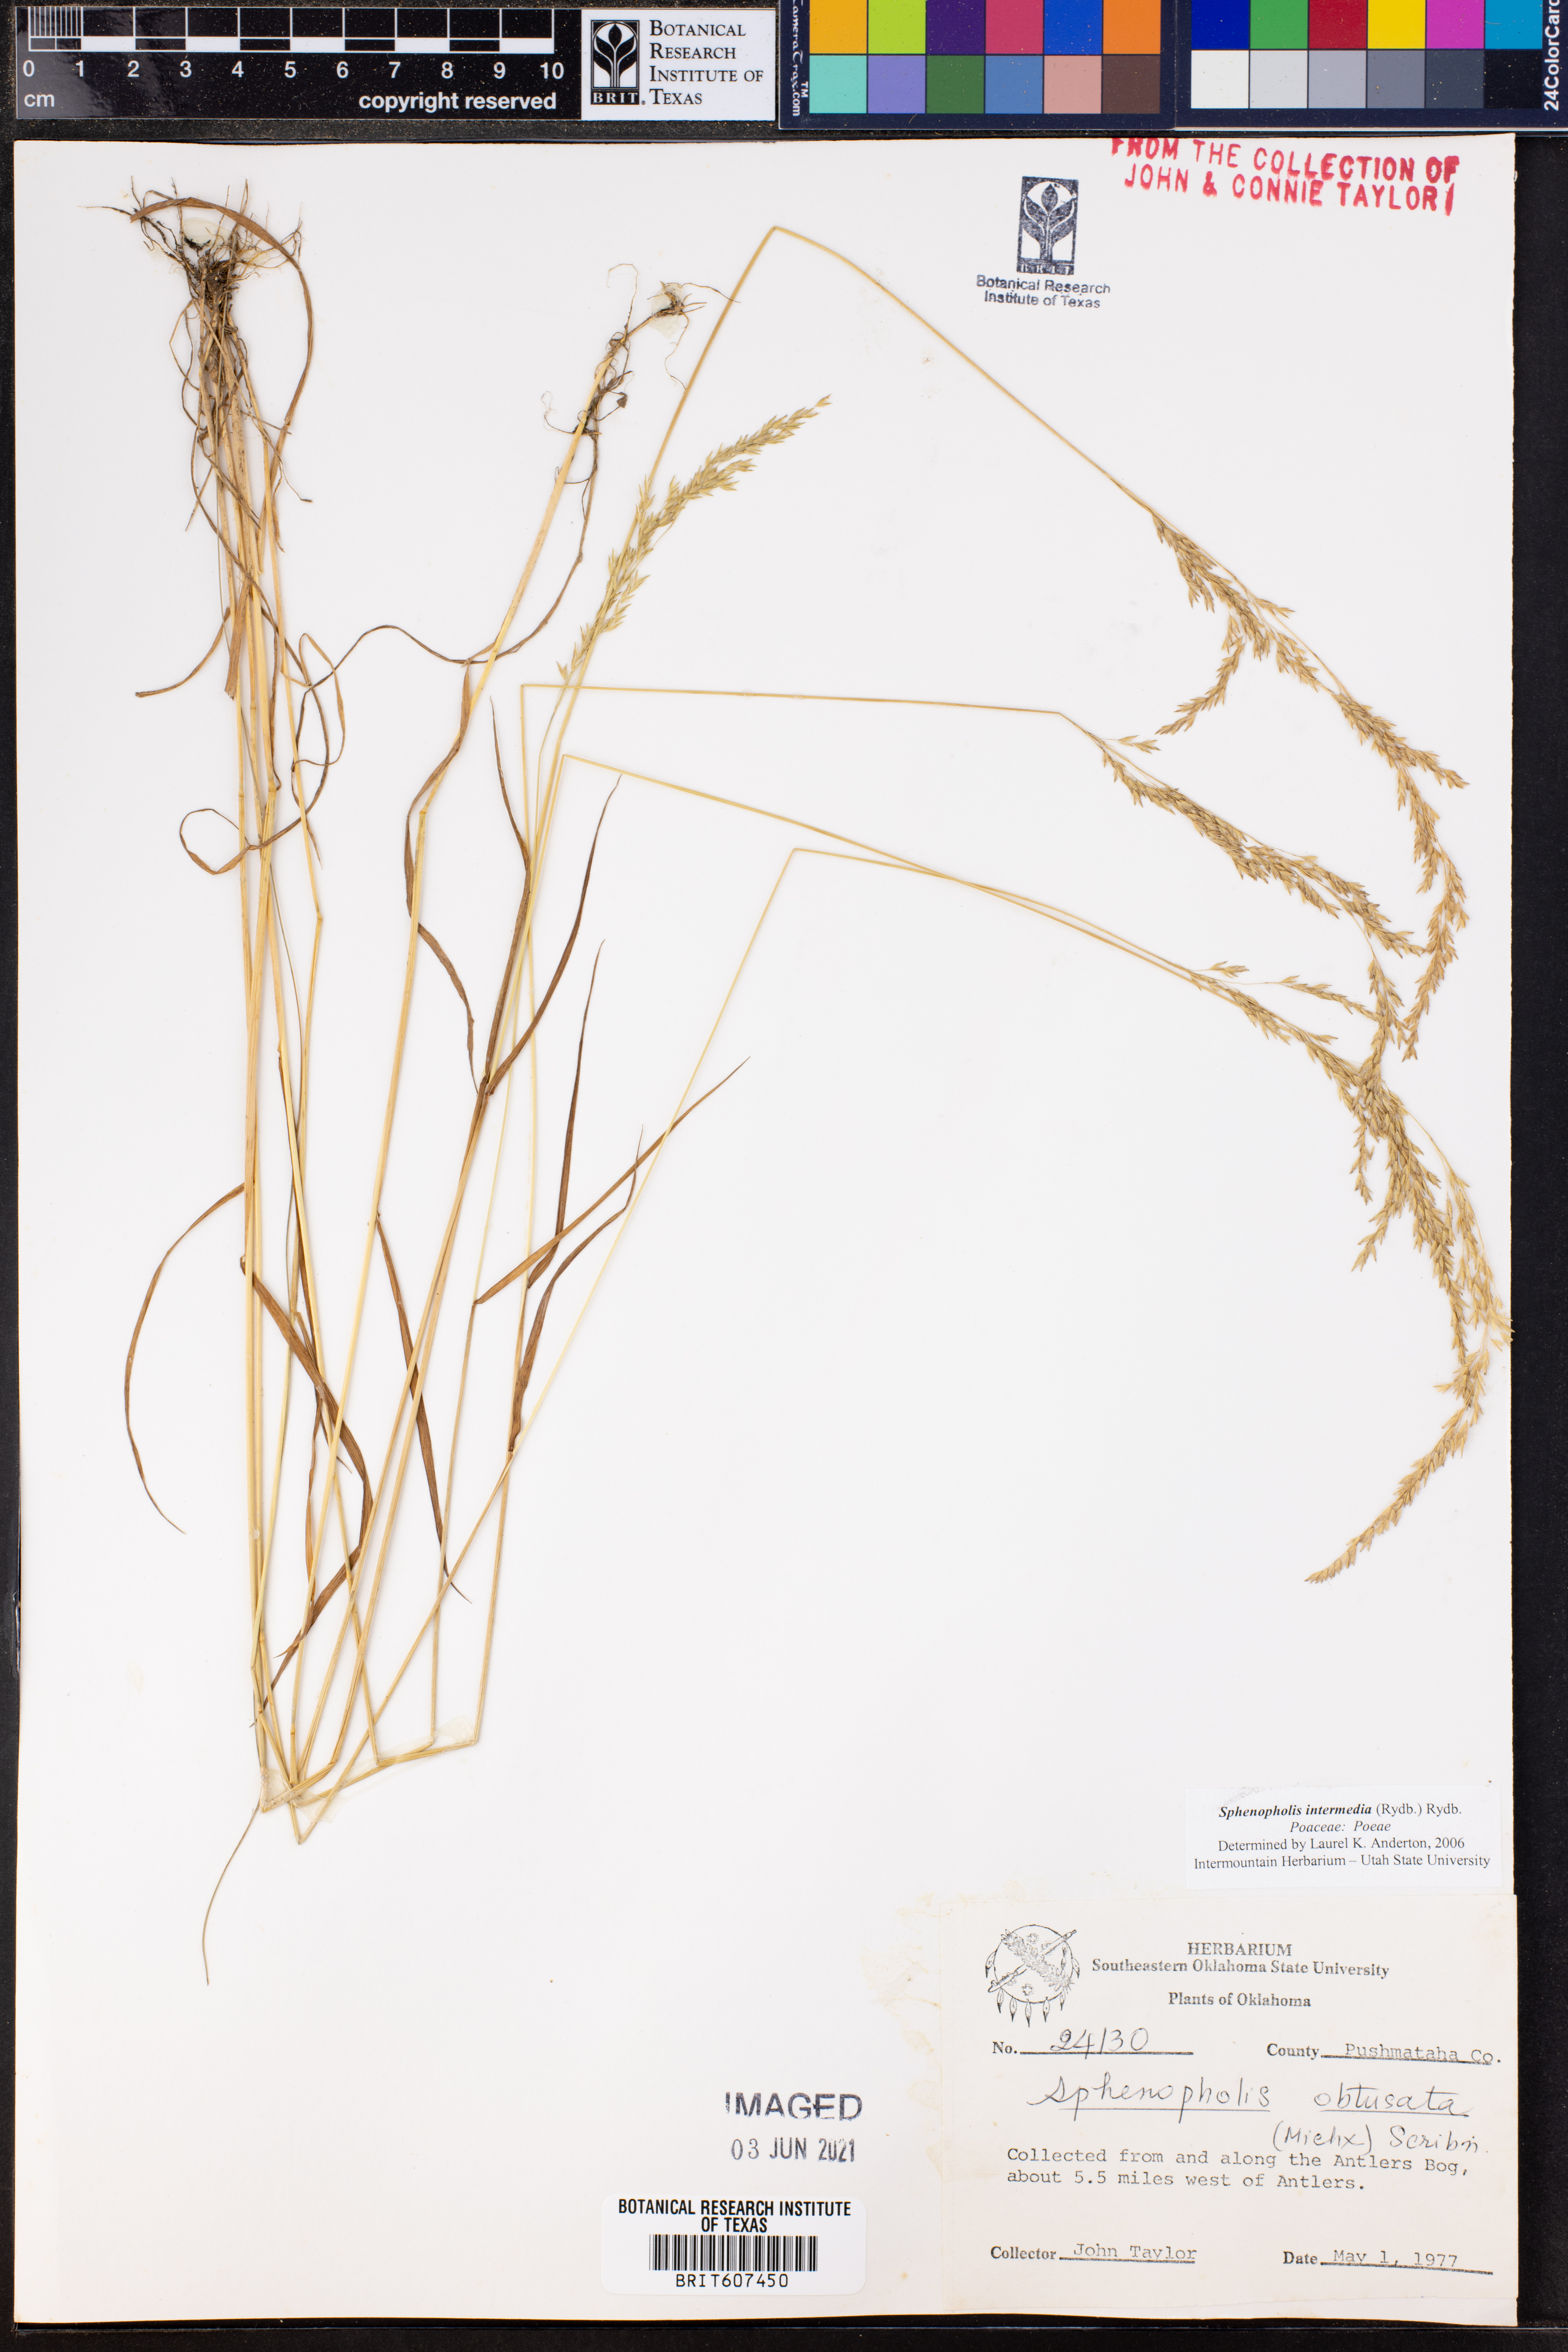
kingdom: Plantae
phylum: Tracheophyta
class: Liliopsida
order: Poales
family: Poaceae
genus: Sphenopholis
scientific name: Sphenopholis intermedia
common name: Intermediate eaton's grass
